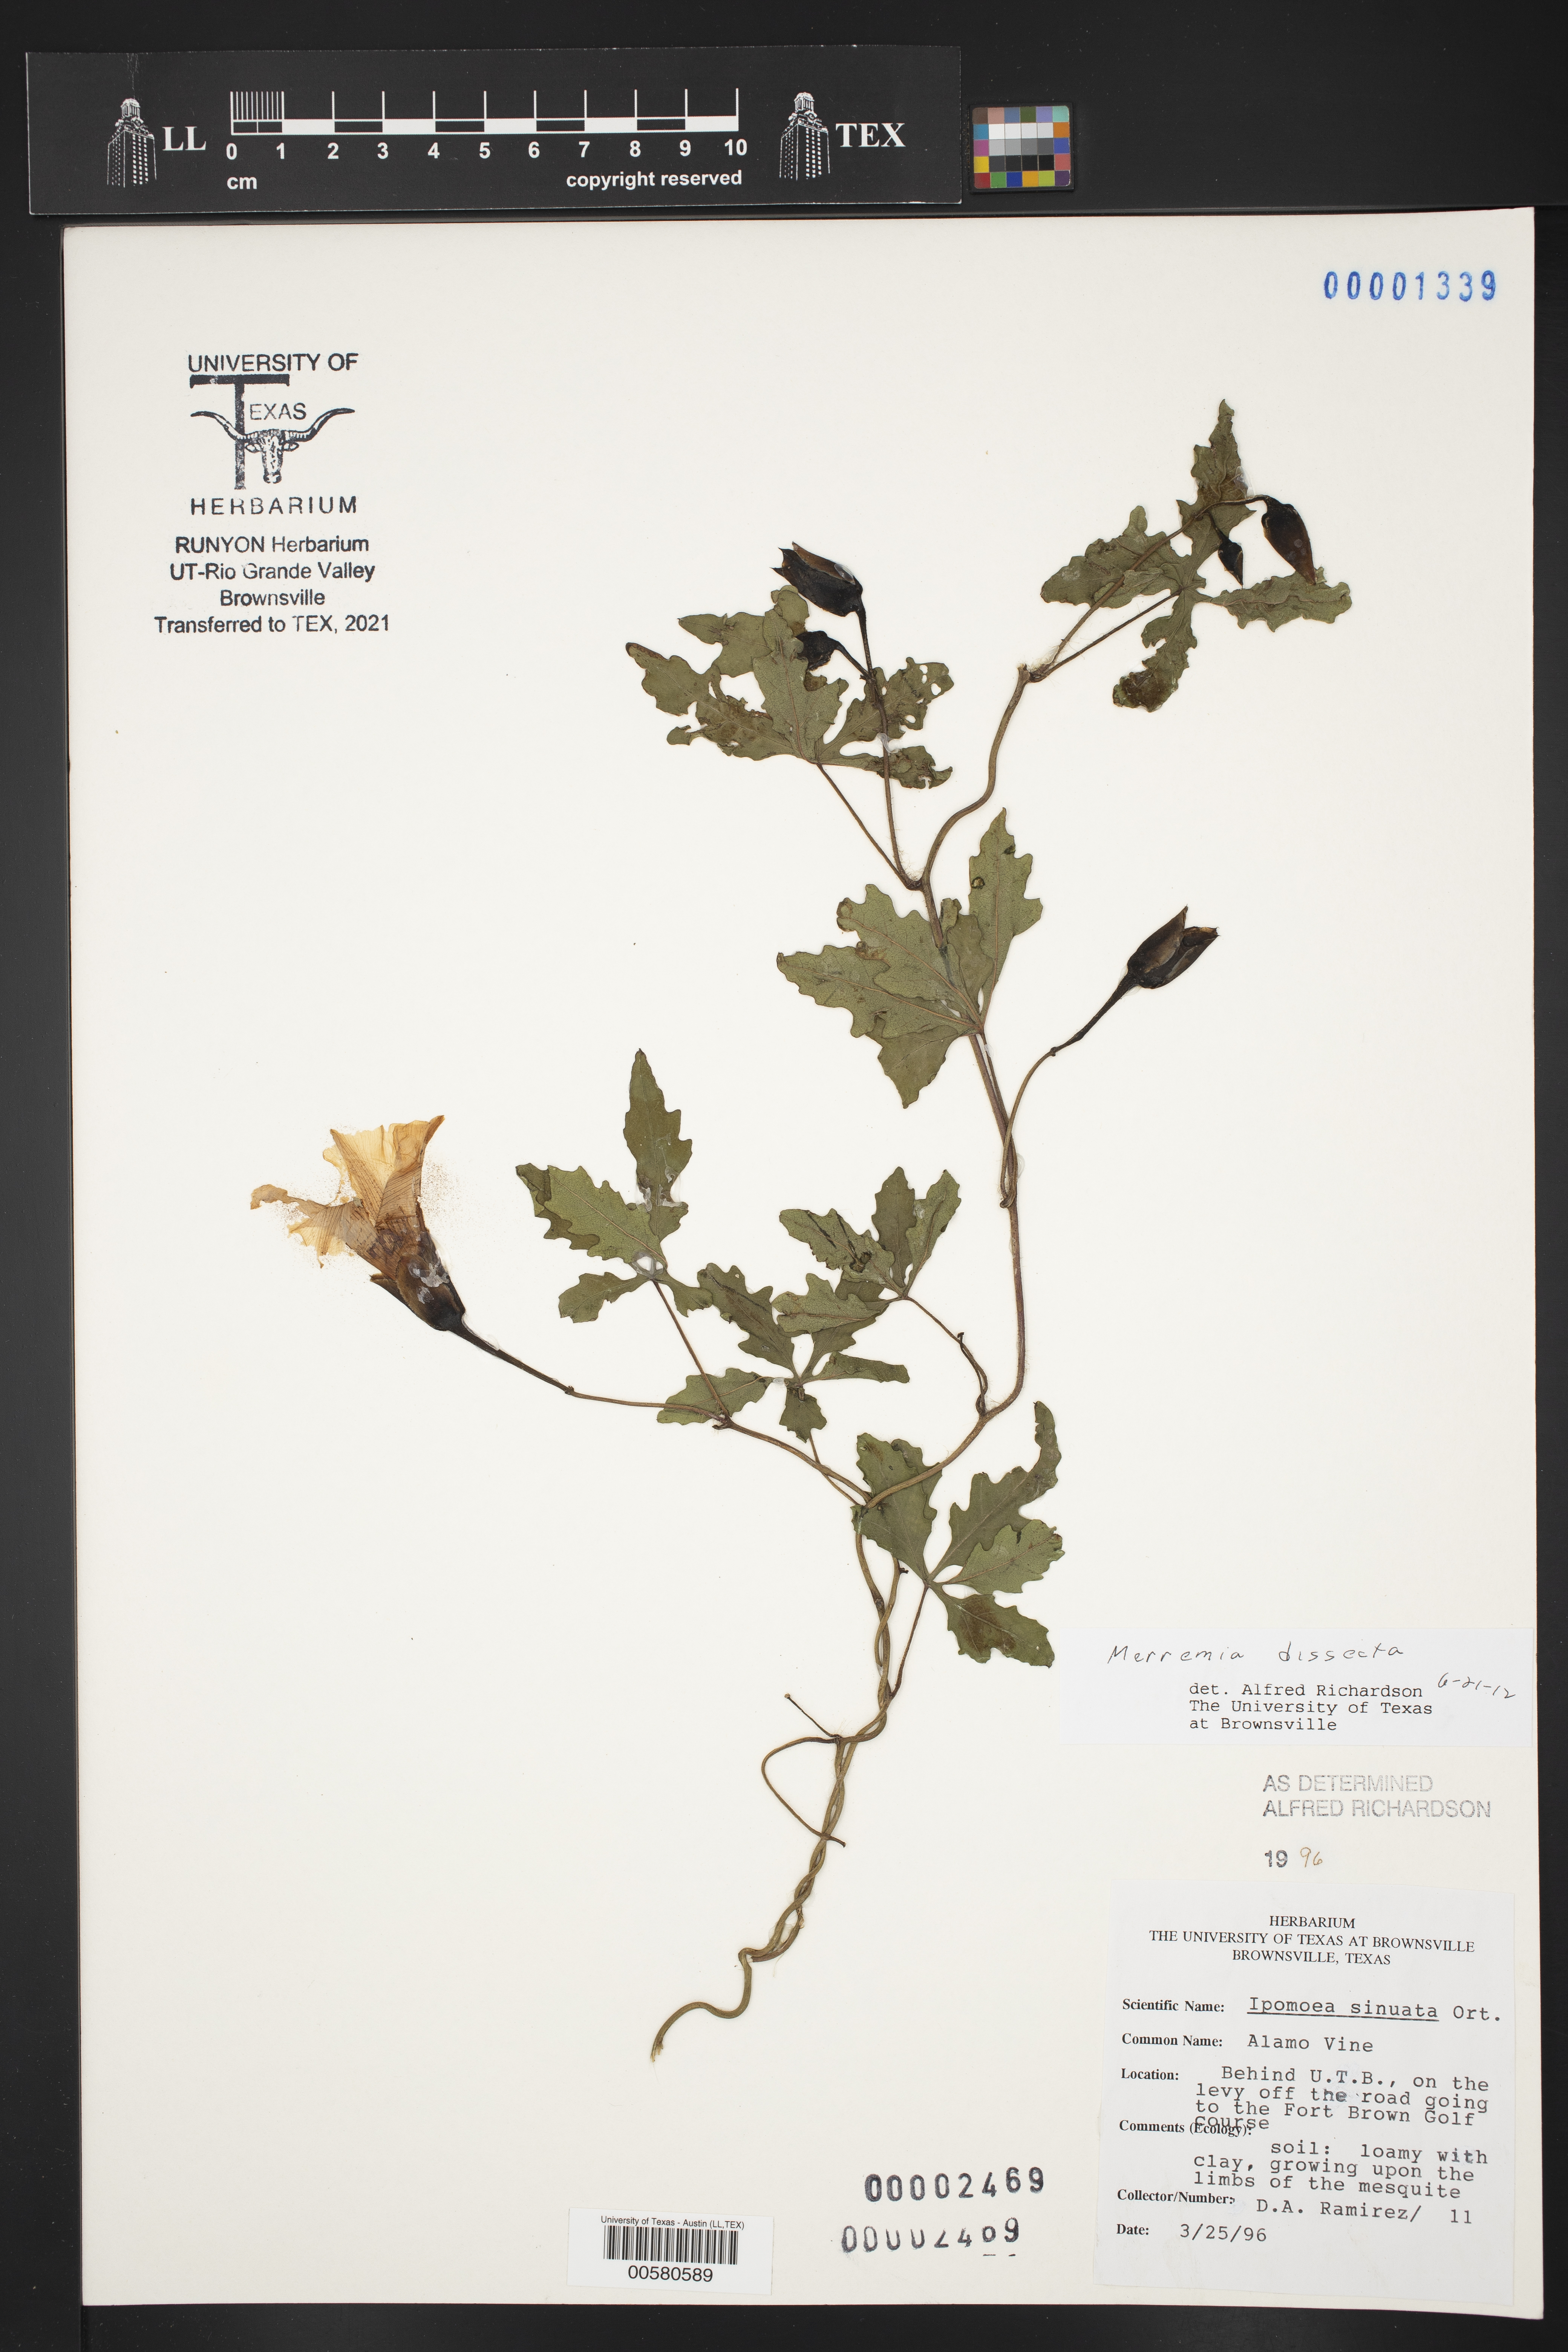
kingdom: Plantae
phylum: Tracheophyta
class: Magnoliopsida
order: Solanales
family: Convolvulaceae
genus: Distimake
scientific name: Distimake dissectus
